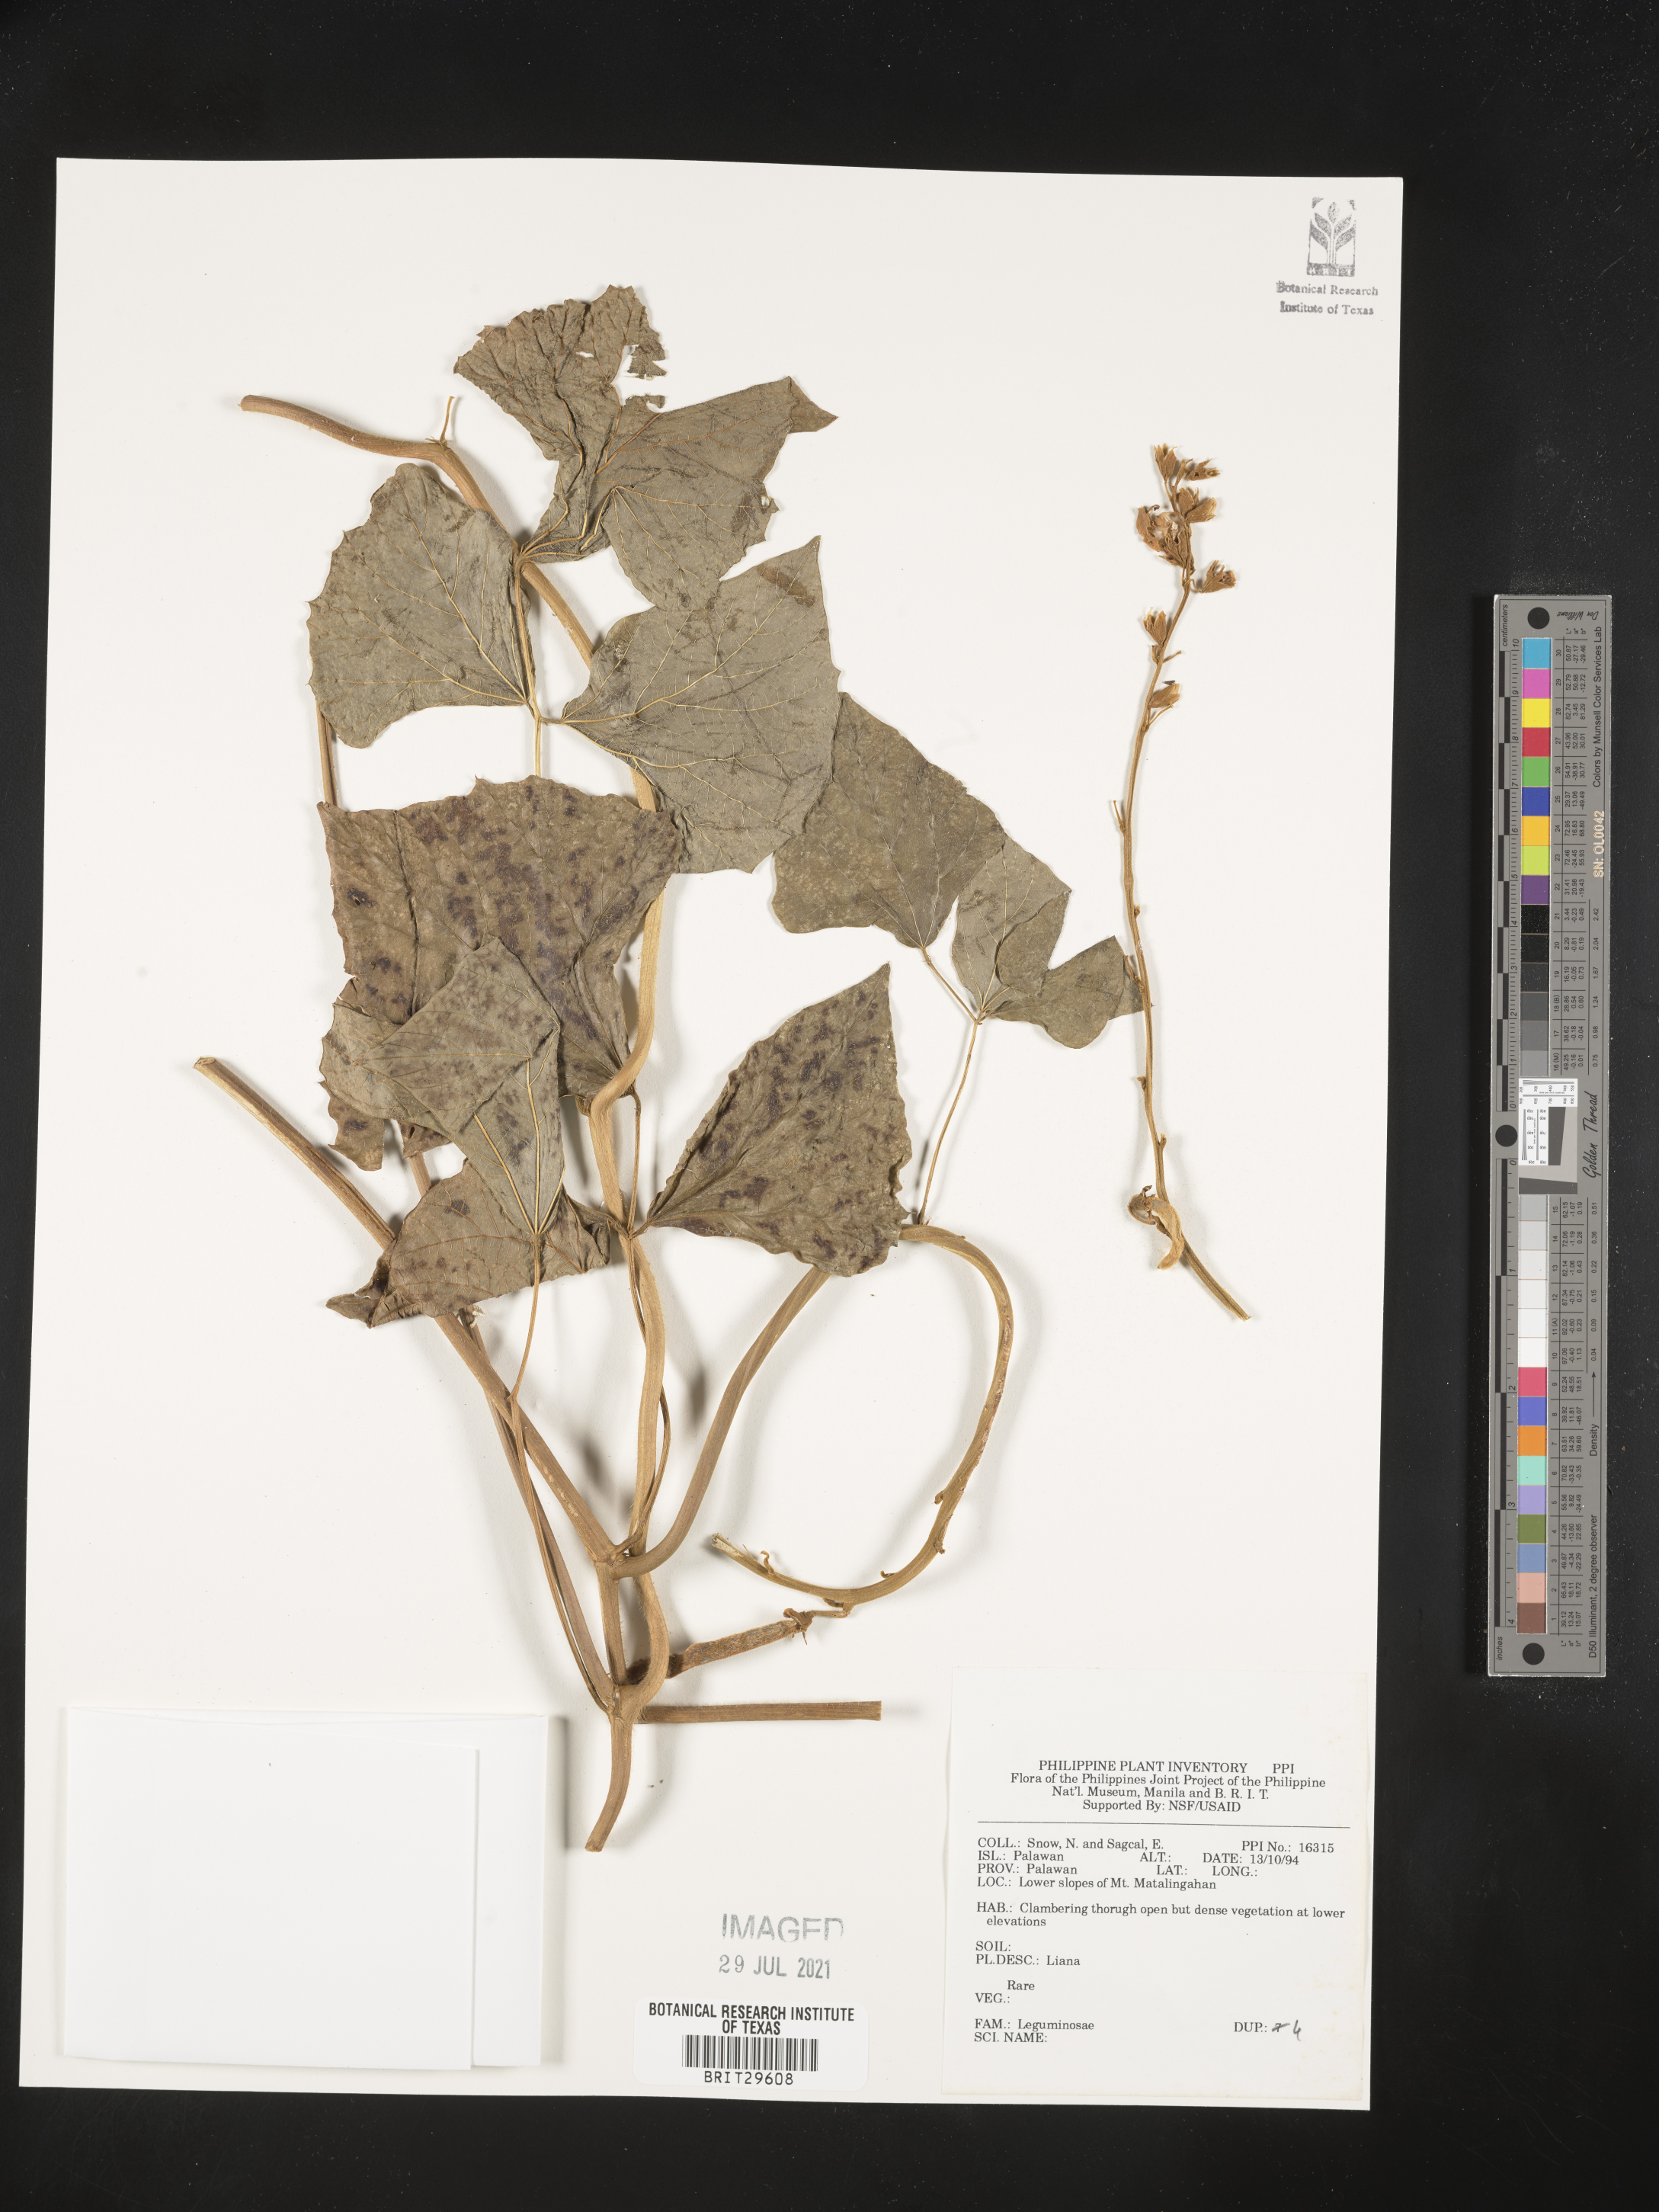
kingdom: Plantae
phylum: Tracheophyta
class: Magnoliopsida
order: Fabales
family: Fabaceae
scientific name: Fabaceae
